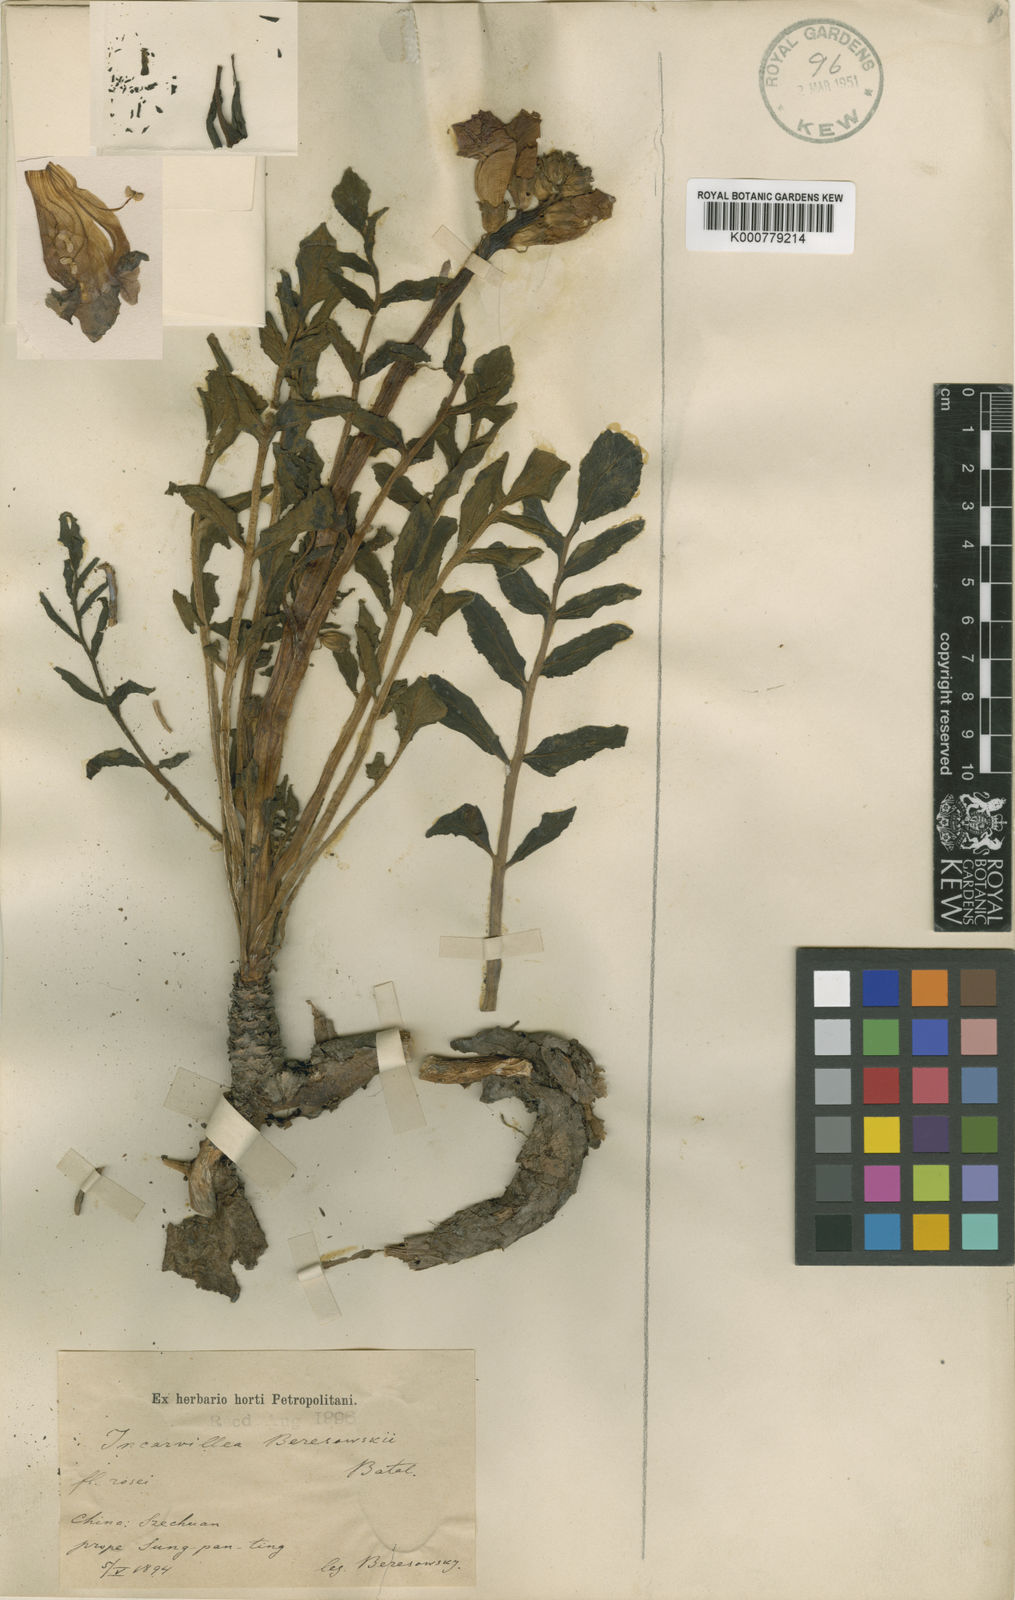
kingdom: Plantae
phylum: Tracheophyta
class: Magnoliopsida
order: Lamiales
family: Bignoniaceae
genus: Incarvillea
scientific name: Incarvillea beresowskii
